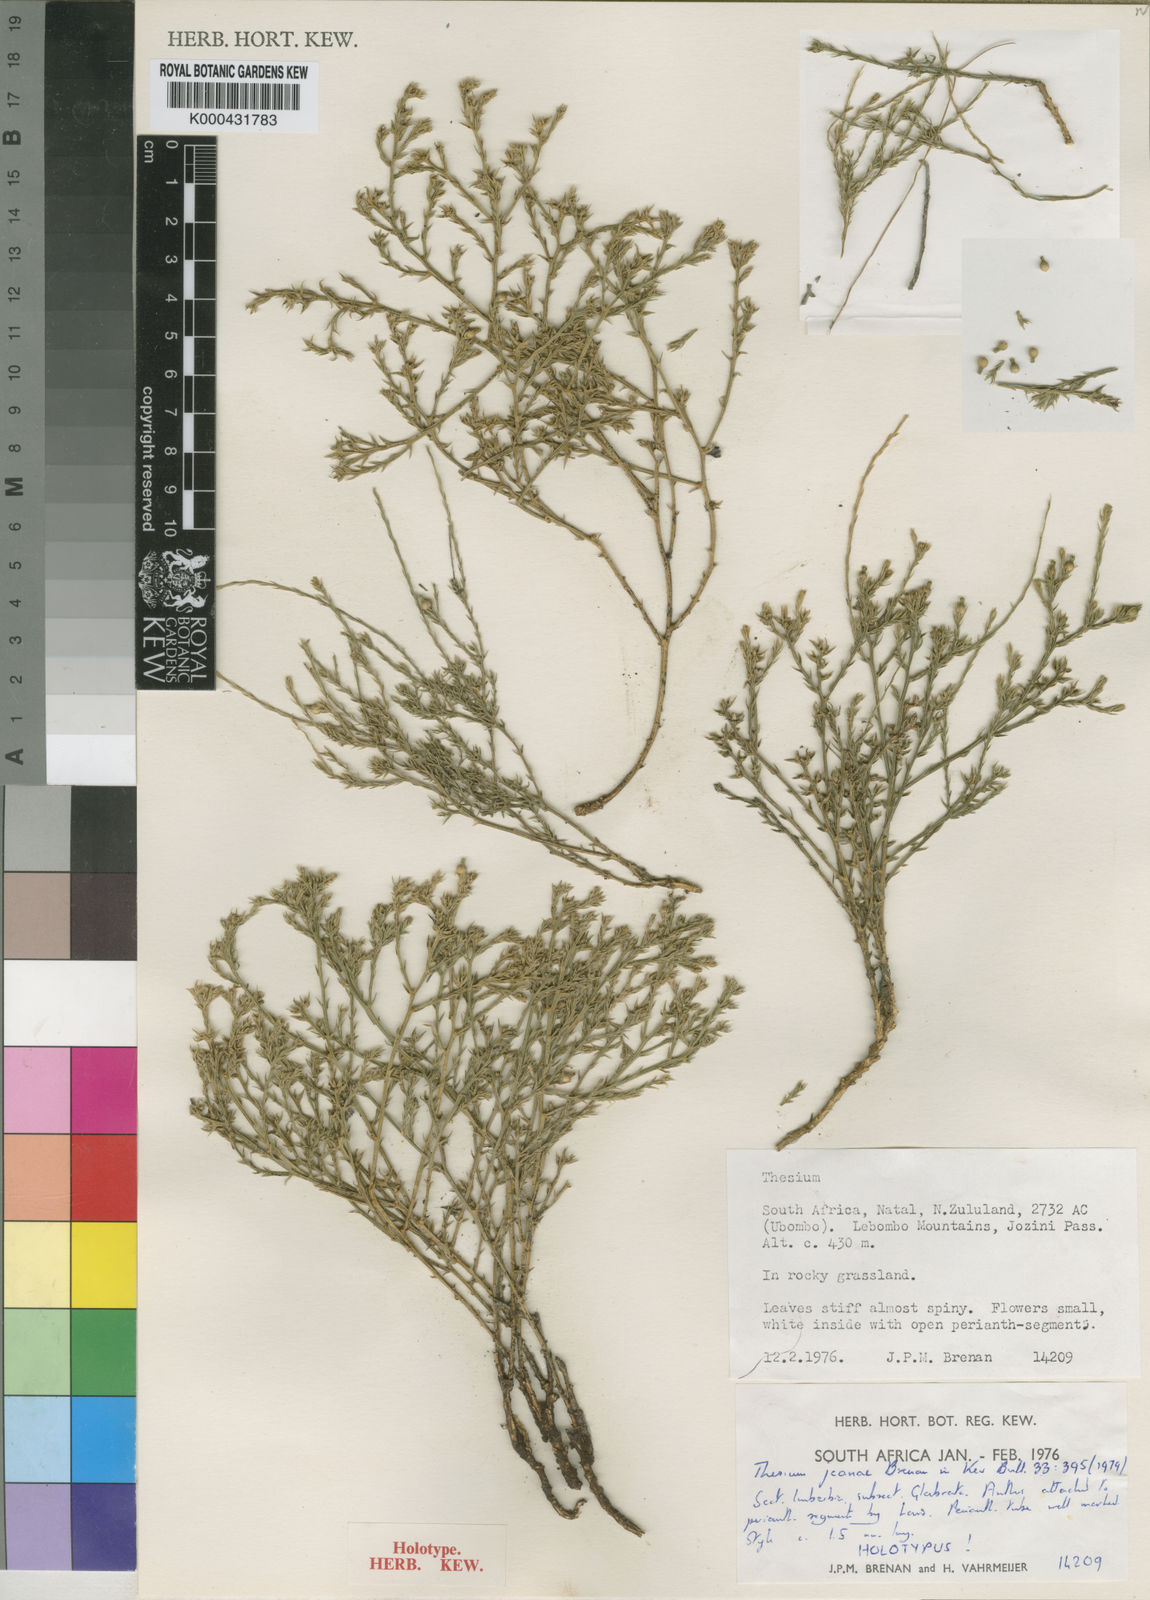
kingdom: Plantae
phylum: Tracheophyta
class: Magnoliopsida
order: Santalales
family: Thesiaceae
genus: Thesium
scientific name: Thesium jeaniae
